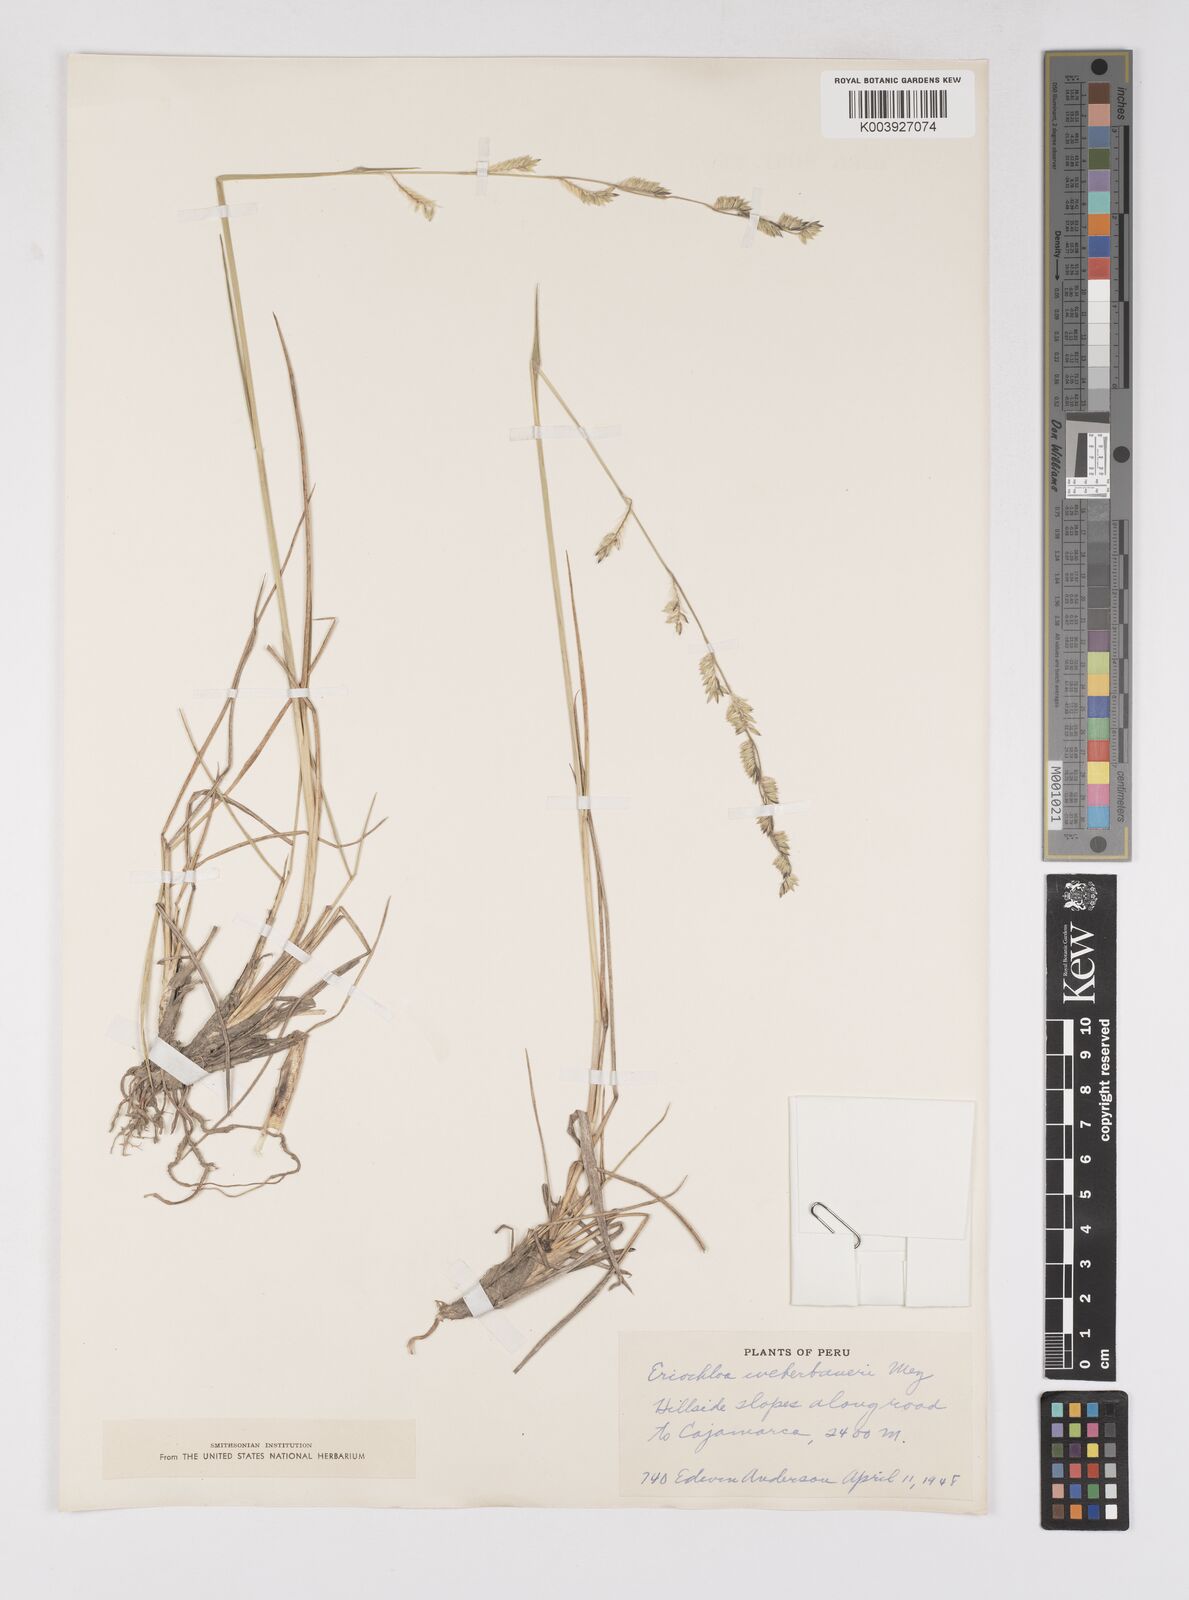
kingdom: Plantae
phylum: Tracheophyta
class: Liliopsida
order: Poales
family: Poaceae
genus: Eriochloa
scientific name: Eriochloa weberbaueri
